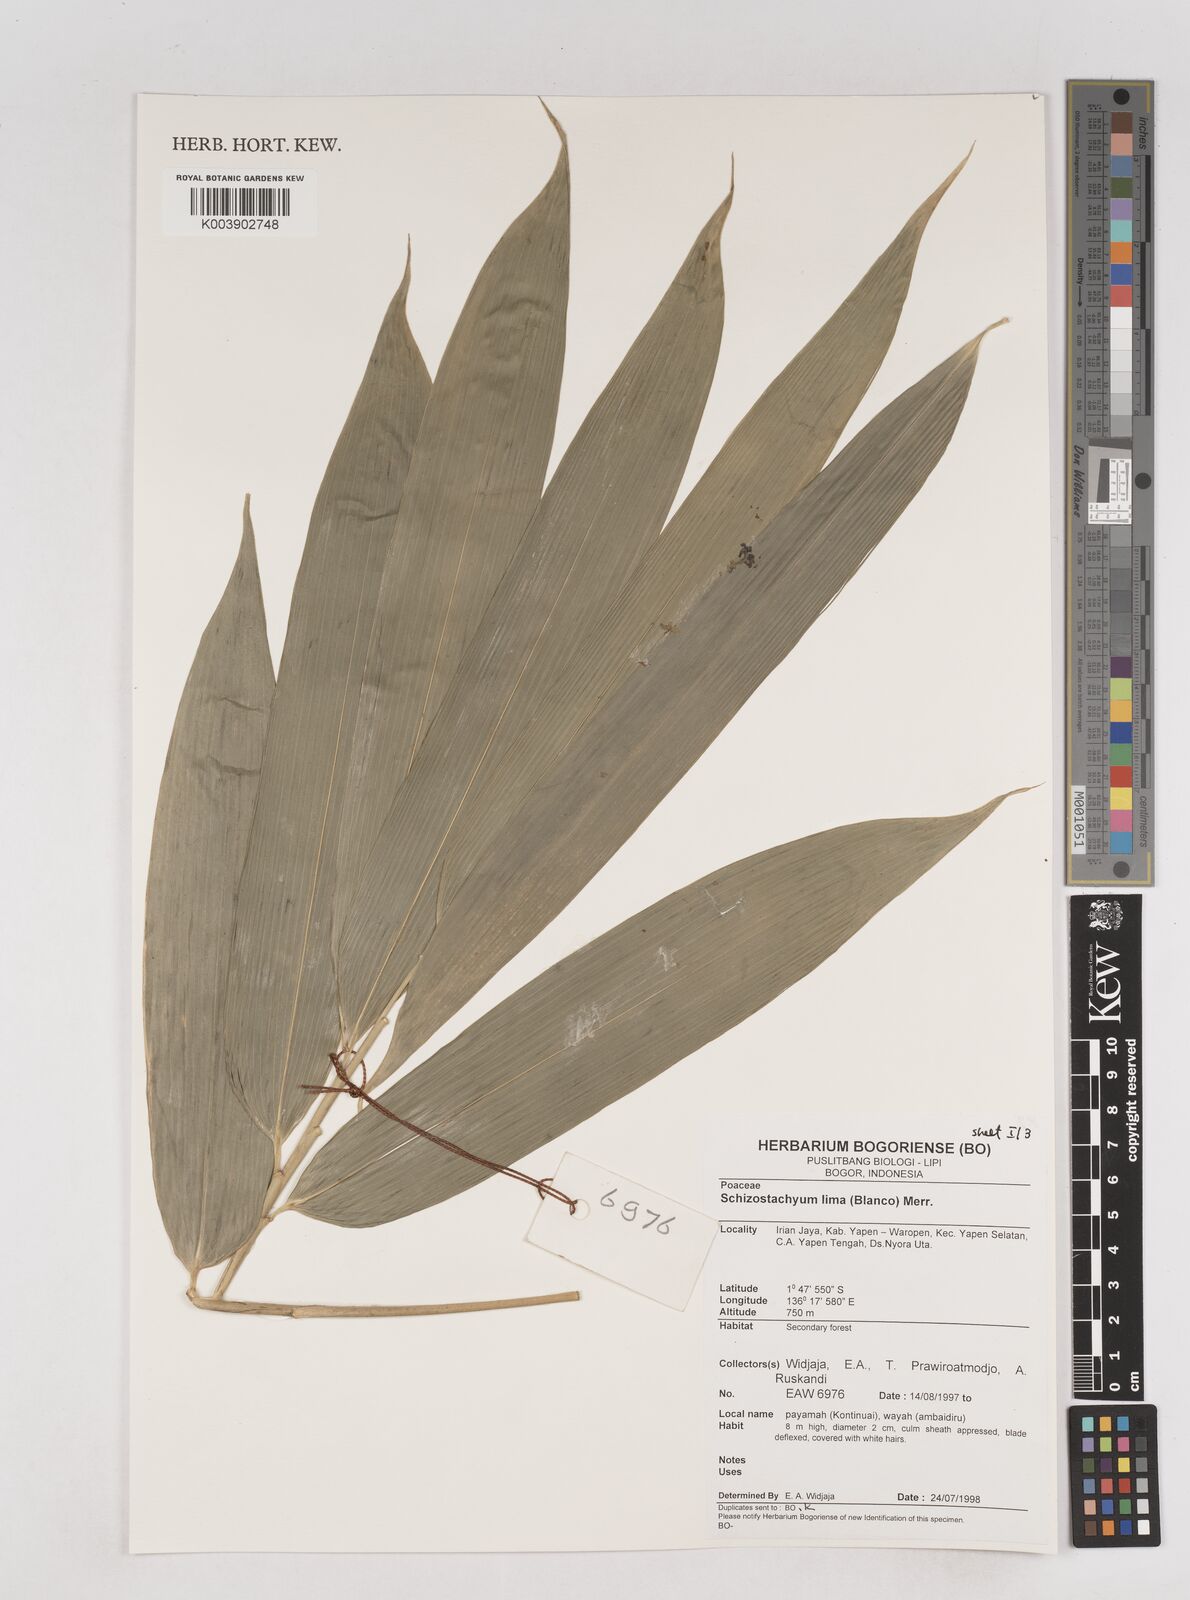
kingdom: Plantae
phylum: Tracheophyta
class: Liliopsida
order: Poales
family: Poaceae
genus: Schizostachyum
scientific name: Schizostachyum lima
